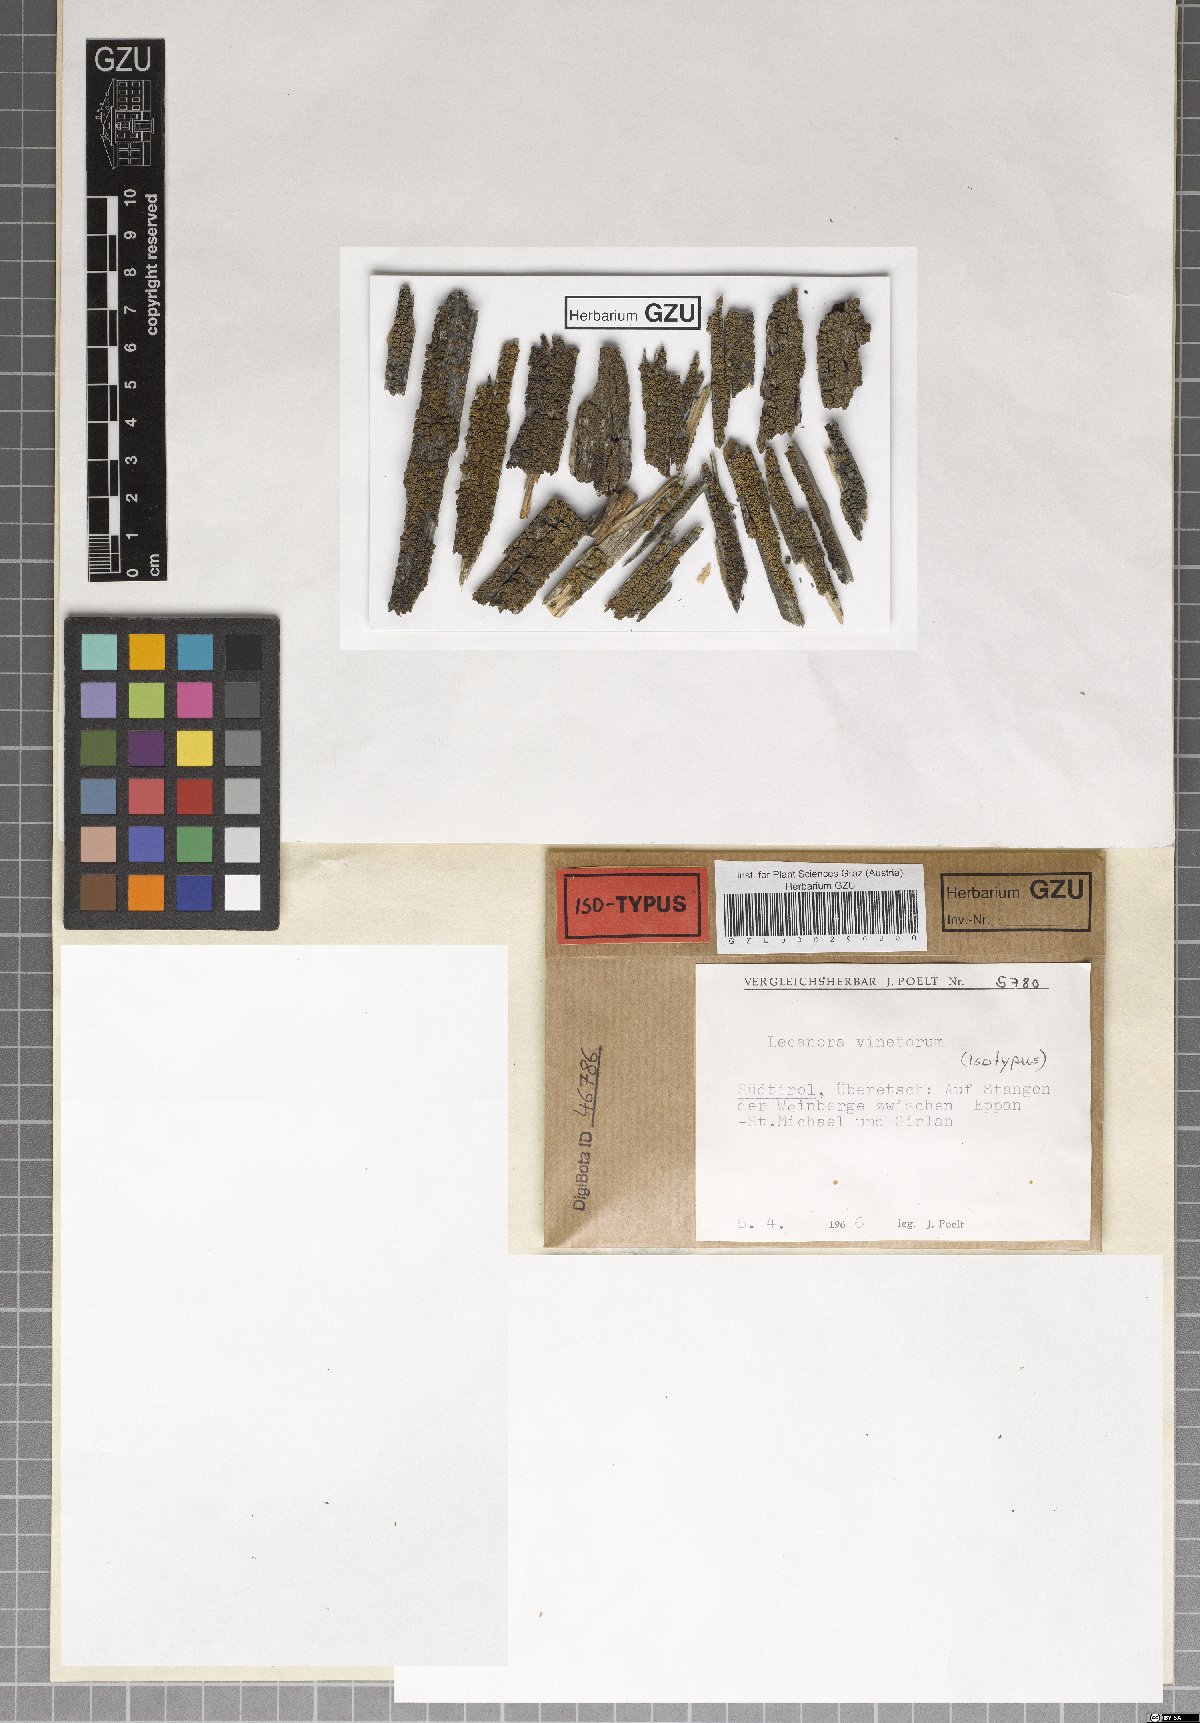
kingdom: Fungi
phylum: Ascomycota
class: Lecanoromycetes
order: Lecanorales
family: Lecanoraceae
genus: Lecanora
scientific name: Lecanora vinetorum
